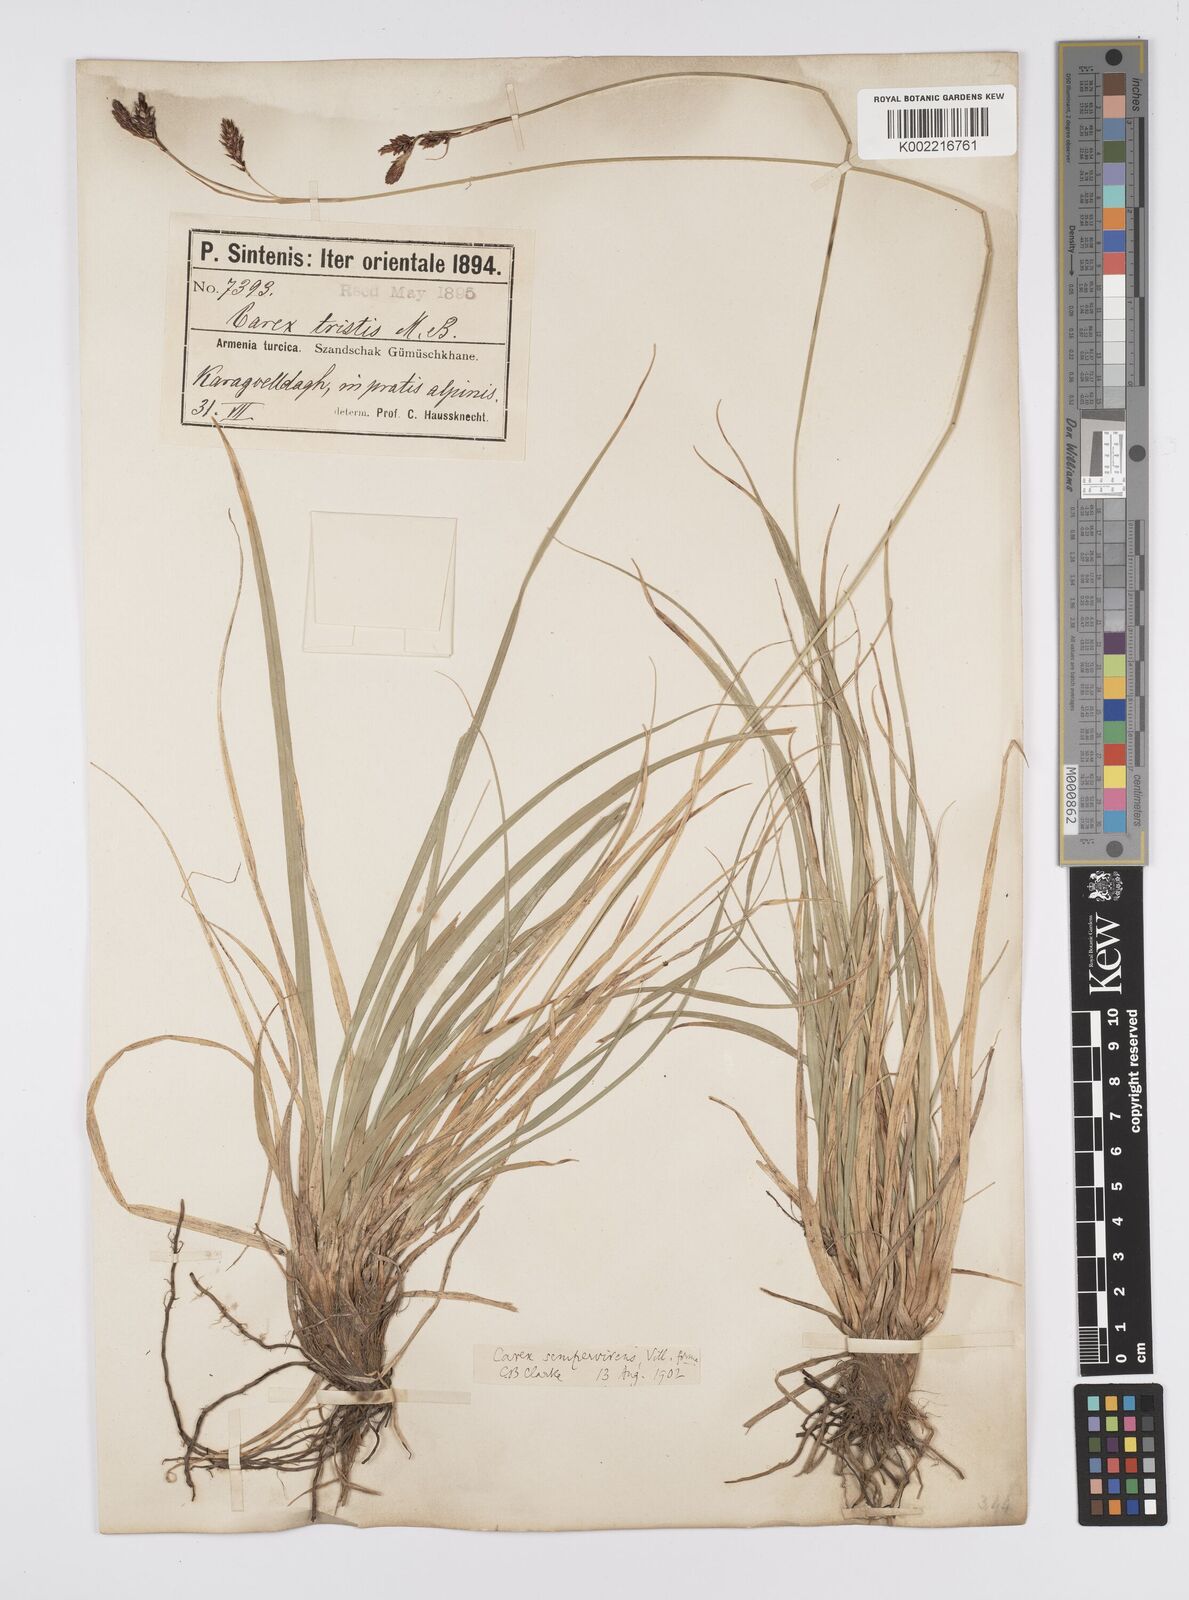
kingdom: Plantae
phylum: Tracheophyta
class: Liliopsida
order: Poales
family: Cyperaceae
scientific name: Cyperaceae
